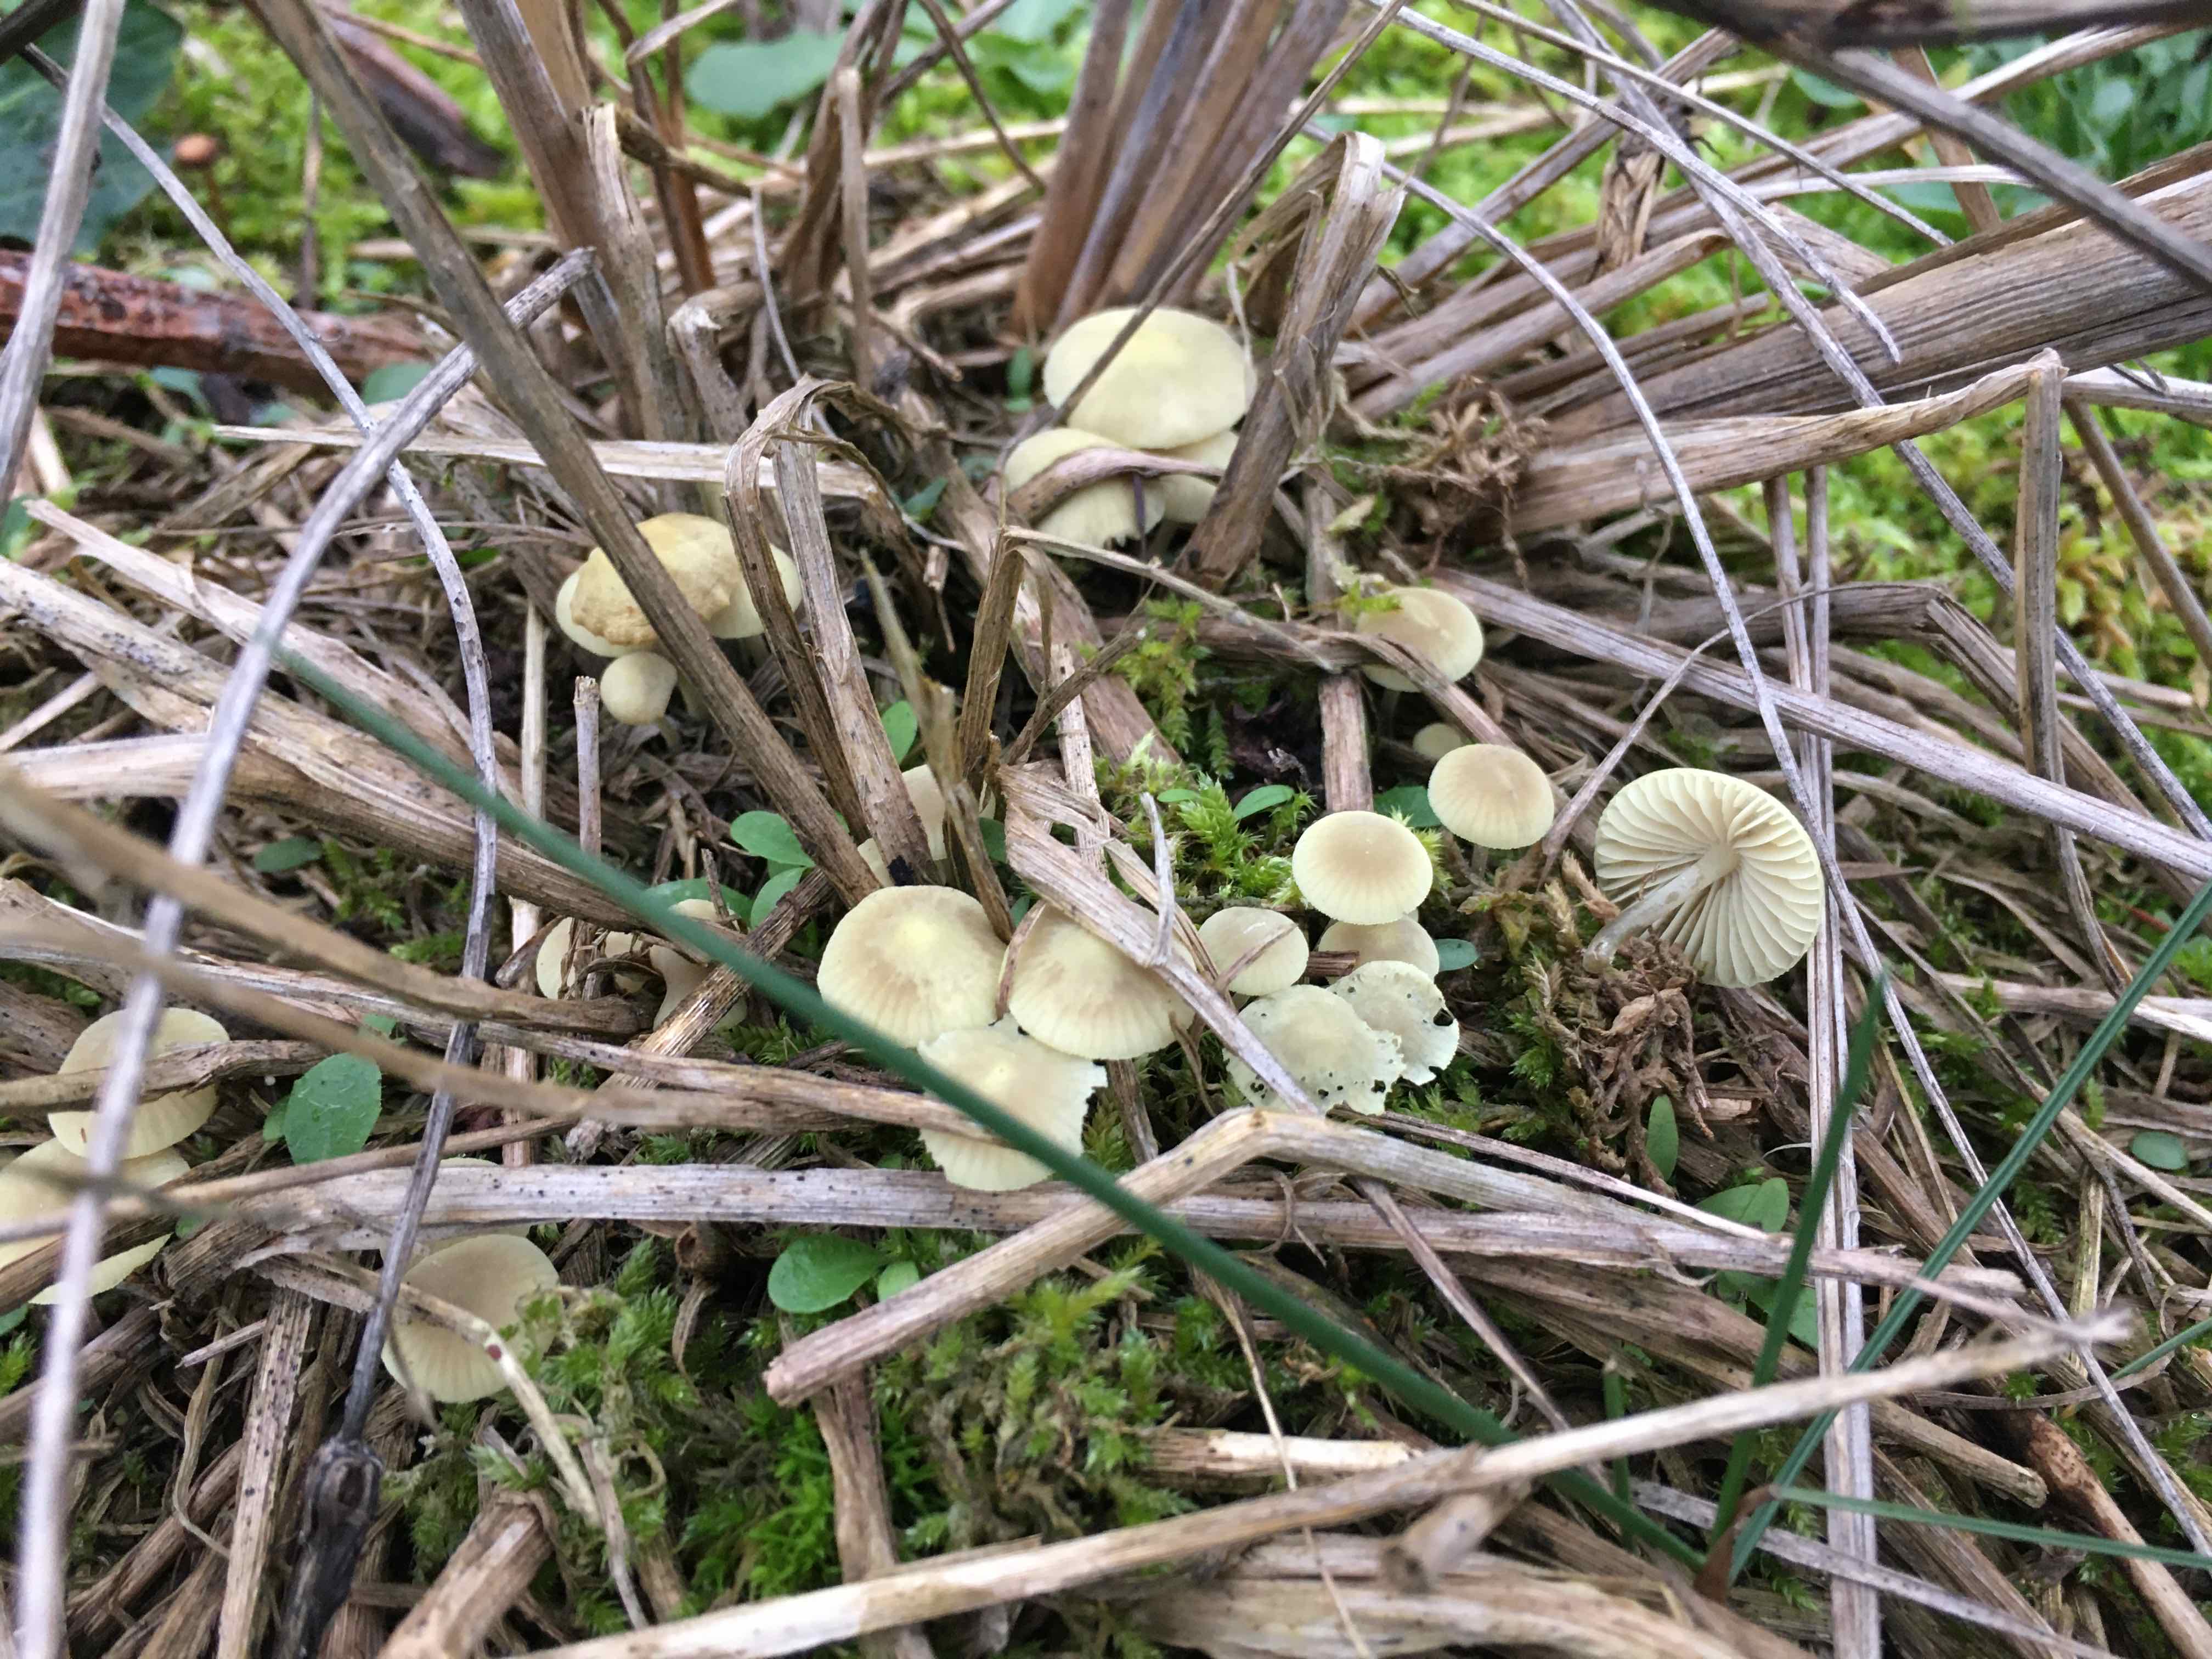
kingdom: Fungi
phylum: Basidiomycota
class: Agaricomycetes
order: Agaricales
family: Mycenaceae
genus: Mycena
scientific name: Mycena chlorantha
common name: klit-huesvamp
